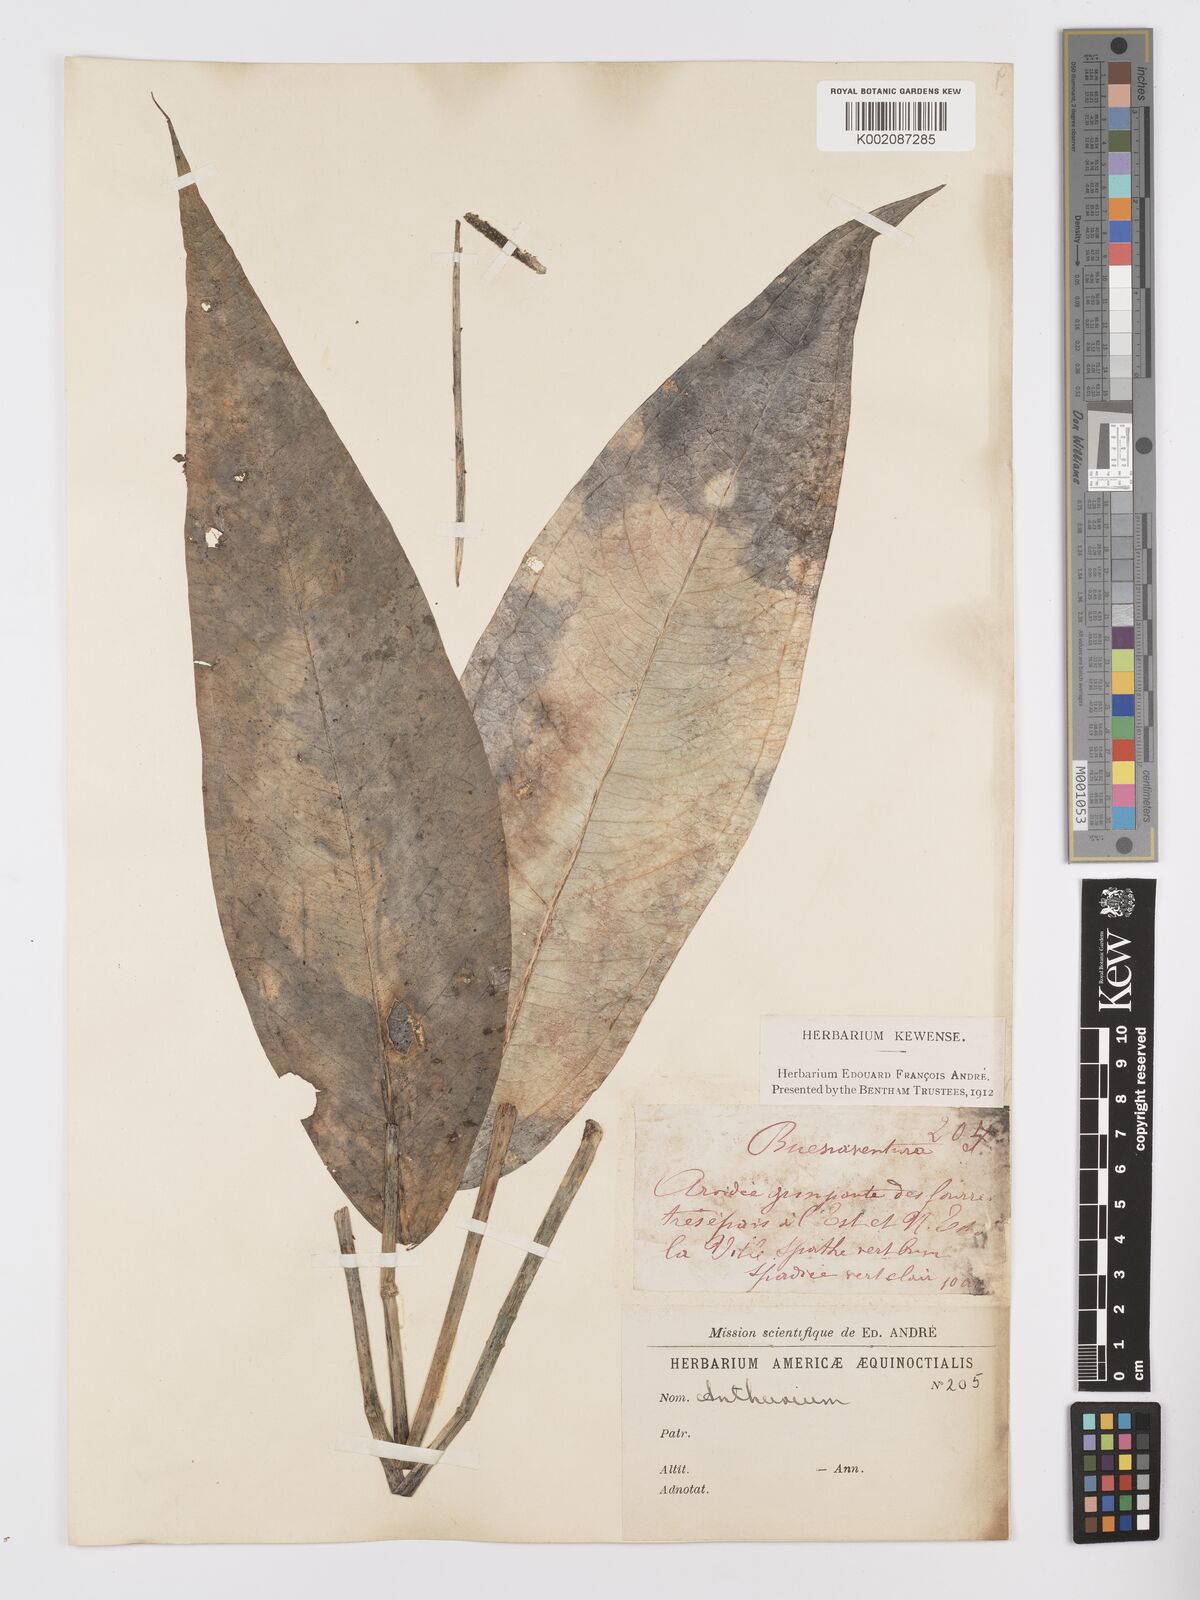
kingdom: Plantae
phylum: Tracheophyta
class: Liliopsida
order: Alismatales
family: Araceae
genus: Anthurium
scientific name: Anthurium
